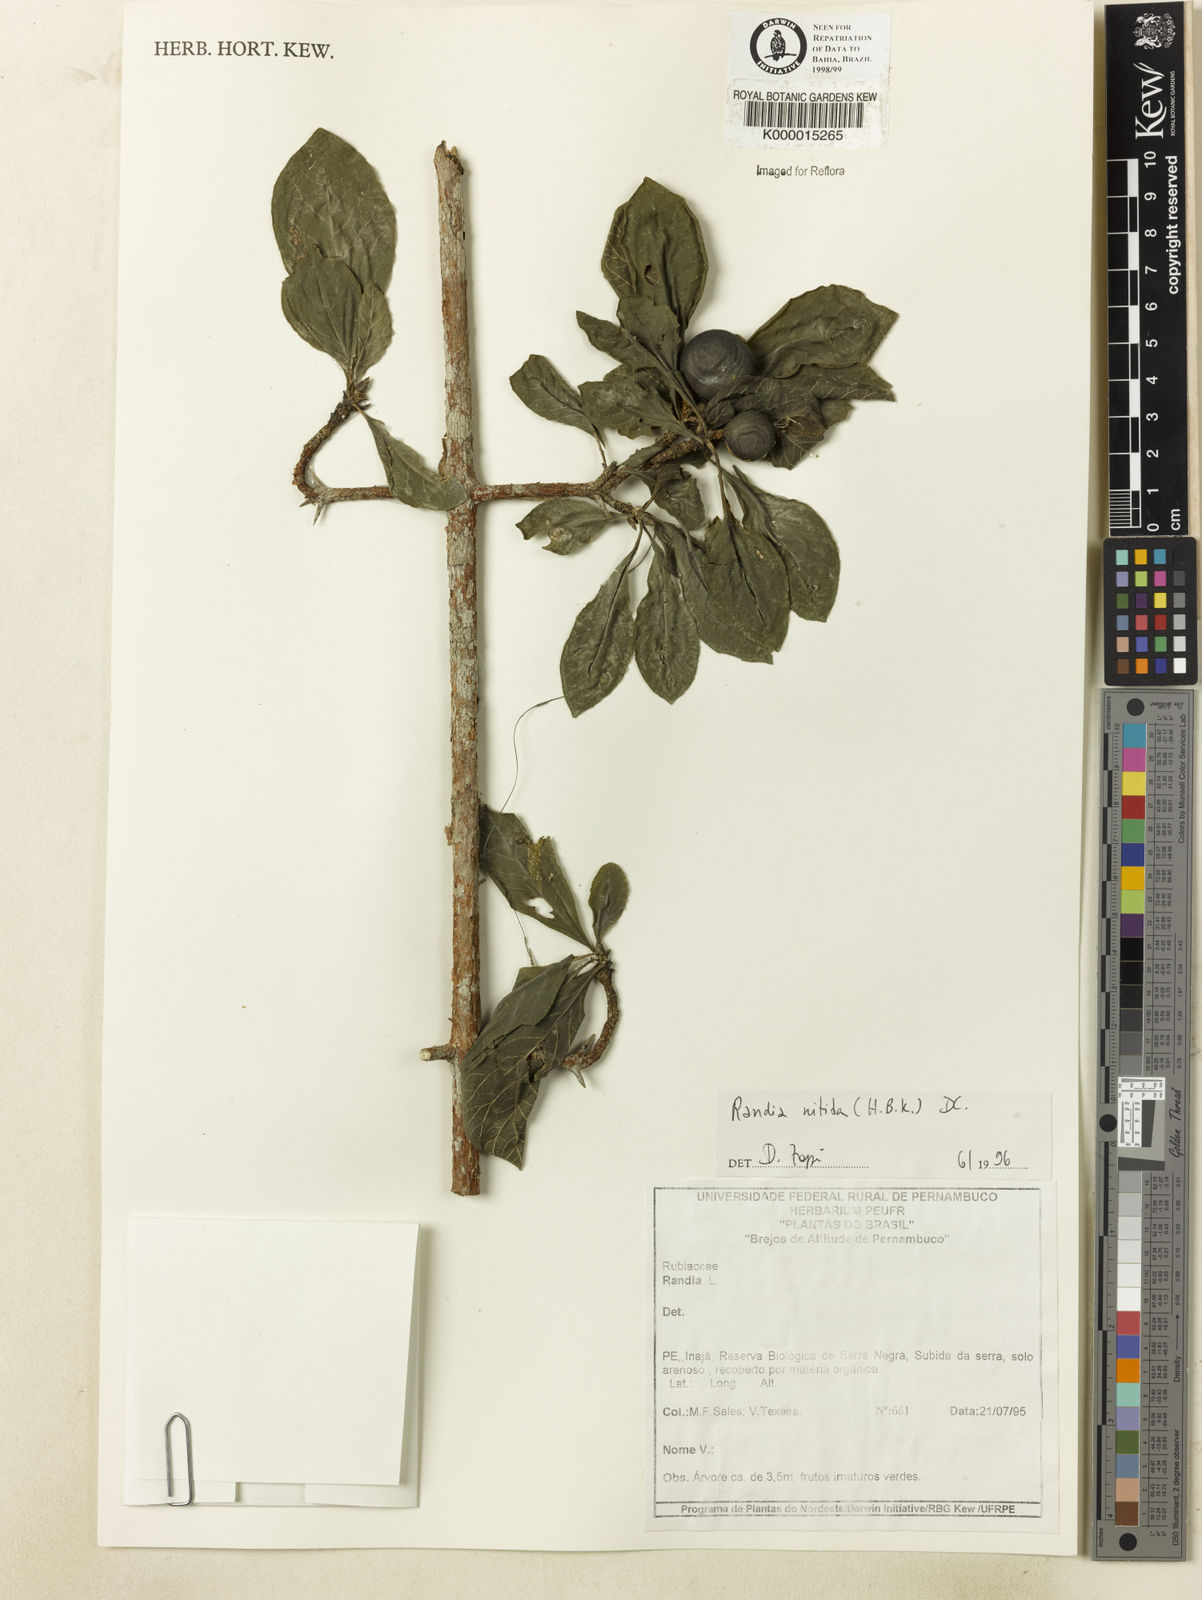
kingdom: Plantae
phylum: Tracheophyta
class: Magnoliopsida
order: Gentianales
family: Rubiaceae
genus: Randia
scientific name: Randia nitida
